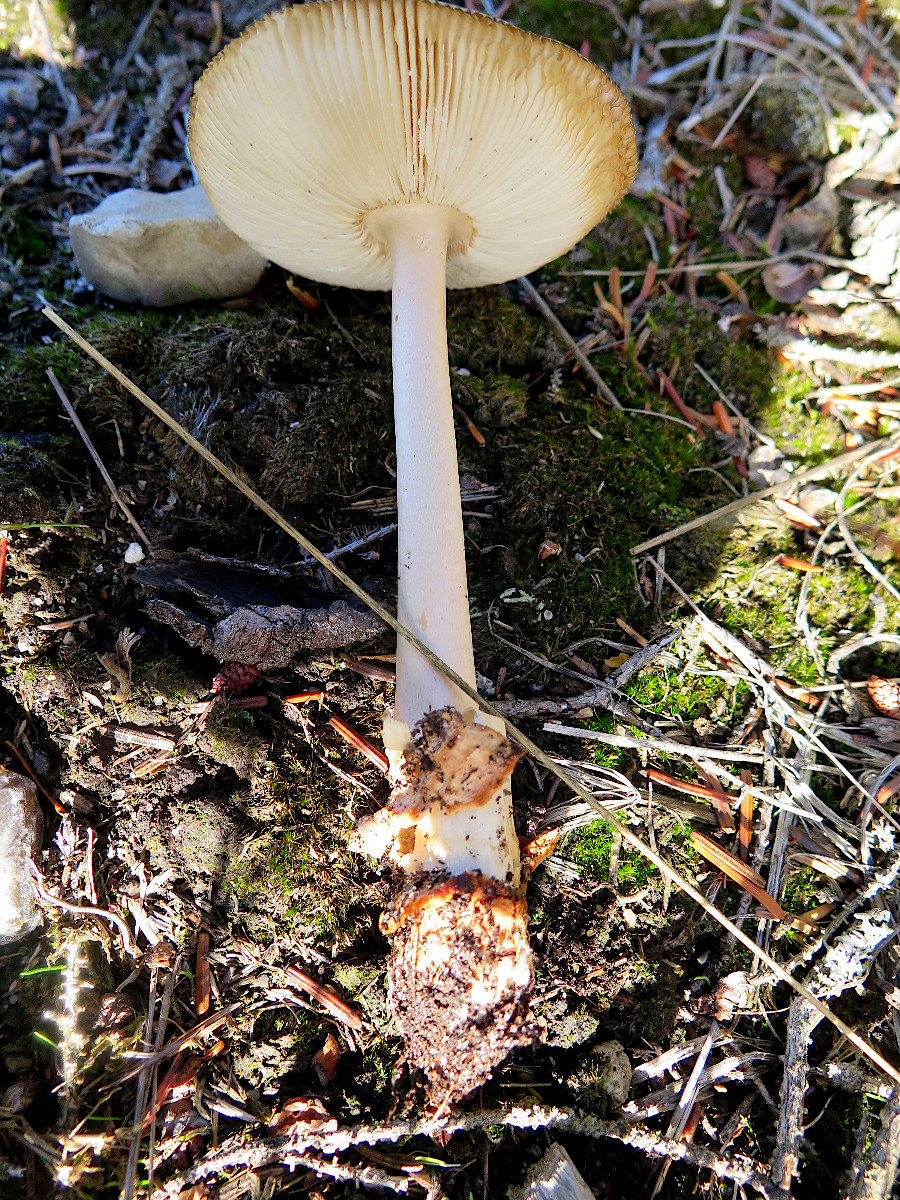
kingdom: Fungi
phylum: Basidiomycota
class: Agaricomycetes
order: Agaricales
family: Amanitaceae
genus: Amanita
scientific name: Amanita fulva
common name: brun kam-fluesvamp
